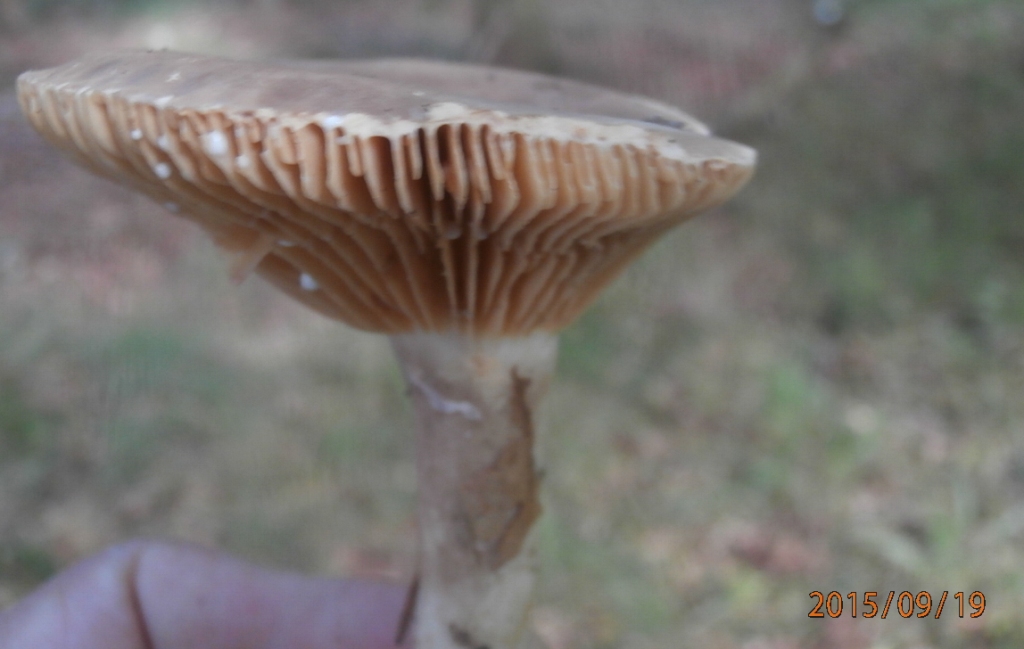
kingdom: Fungi
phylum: Basidiomycota
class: Agaricomycetes
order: Russulales
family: Russulaceae
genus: Lactarius
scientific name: Lactarius ruginosus
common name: gråbrun mælkehat
